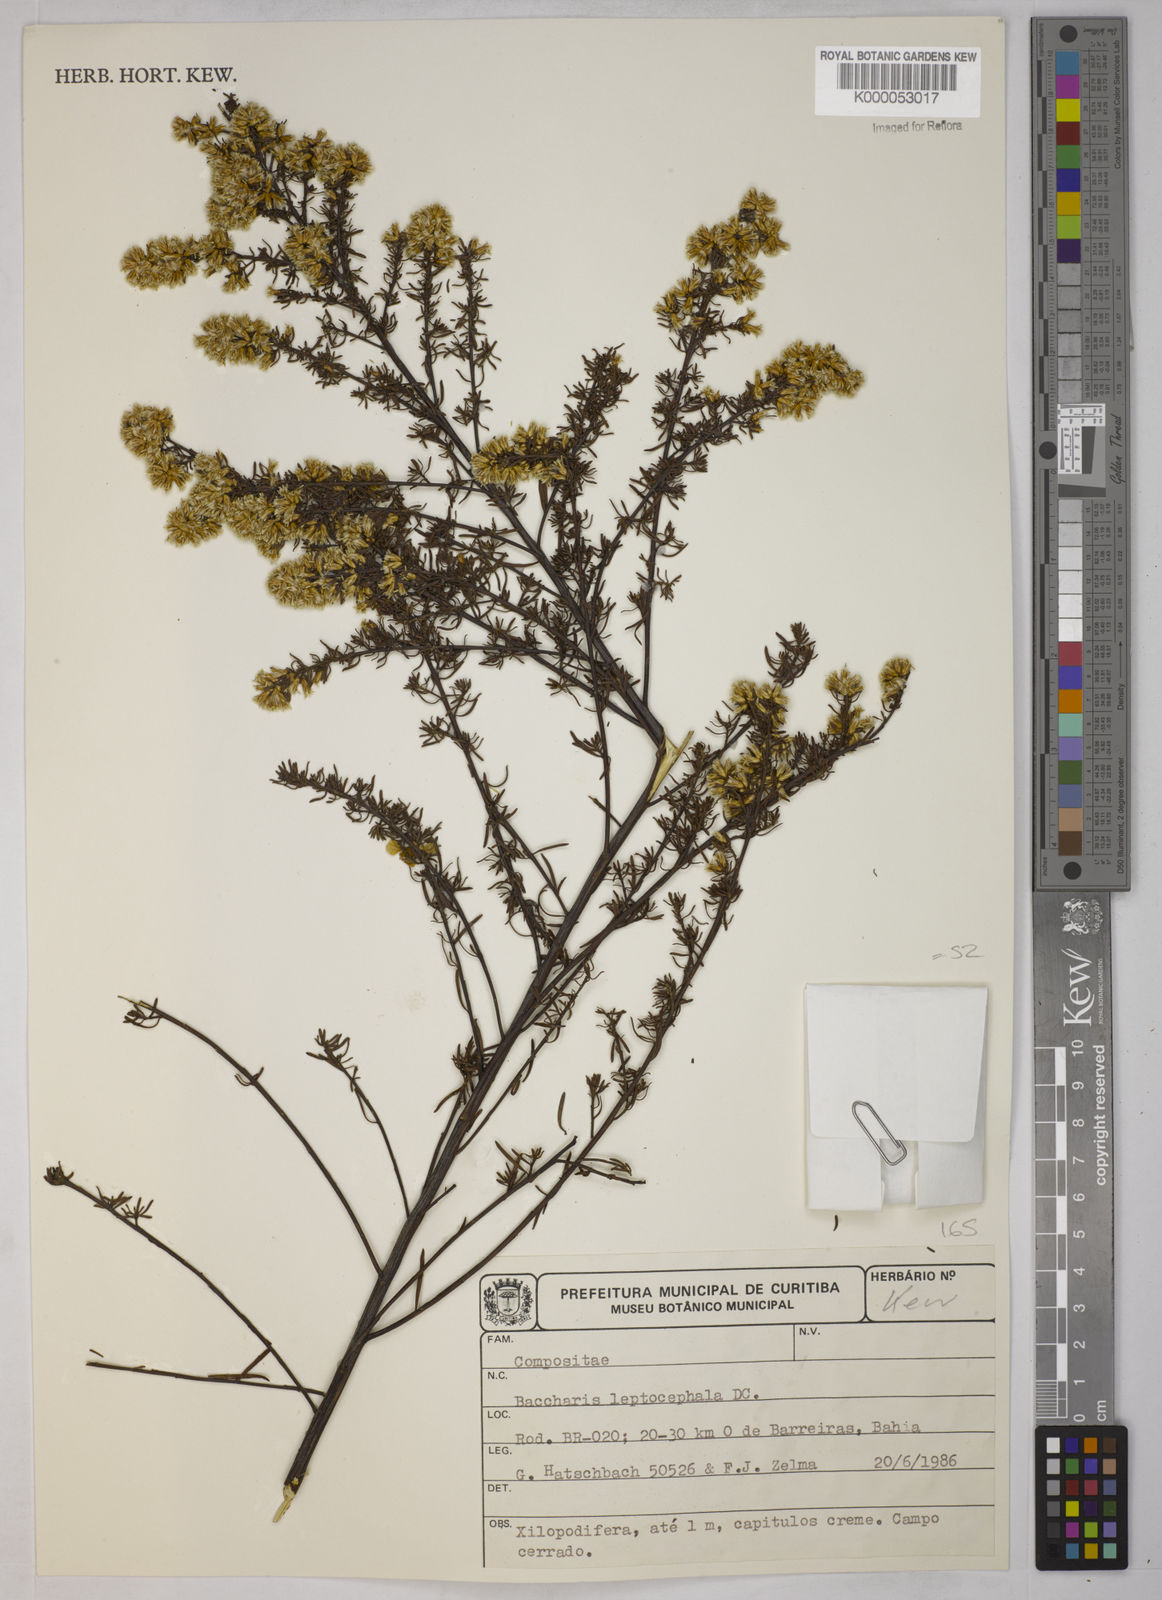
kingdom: Plantae
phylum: Tracheophyta
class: Magnoliopsida
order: Asterales
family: Asteraceae
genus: Baccharis
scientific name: Baccharis leptocephala
